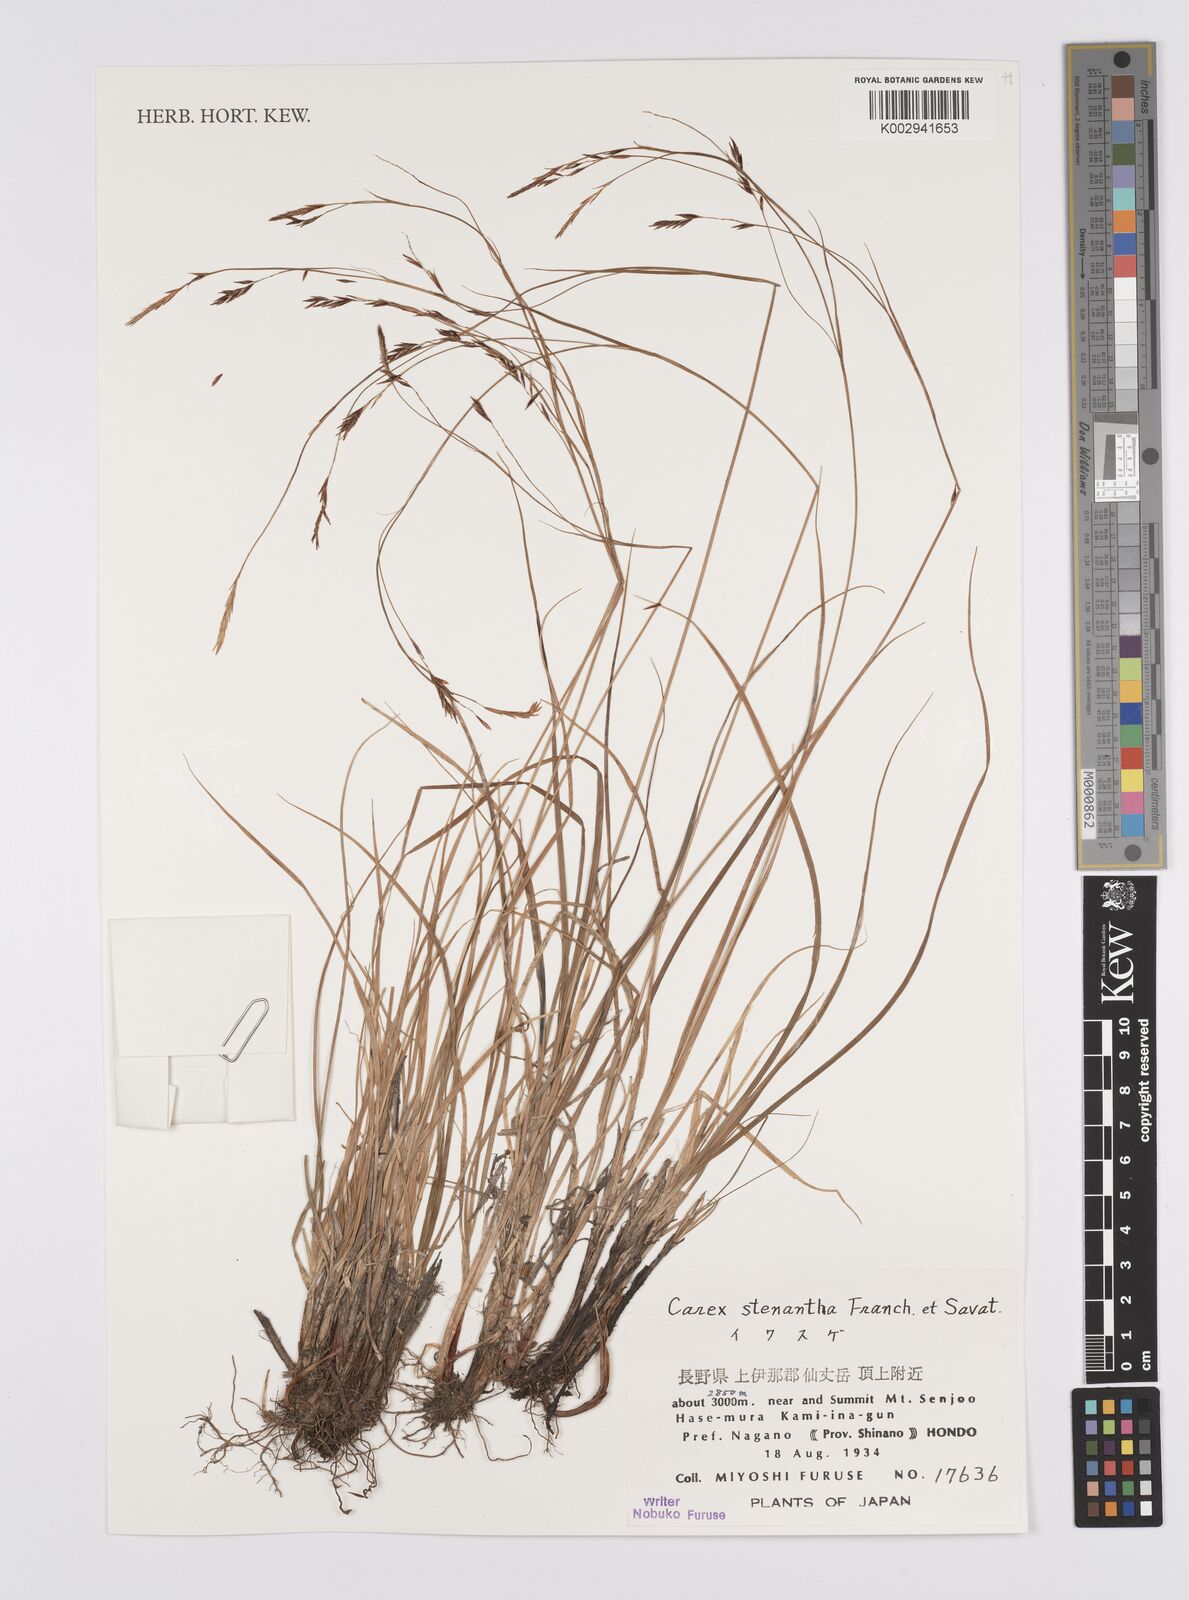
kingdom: Plantae
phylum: Tracheophyta
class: Liliopsida
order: Poales
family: Cyperaceae
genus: Carex
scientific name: Carex stenantha
